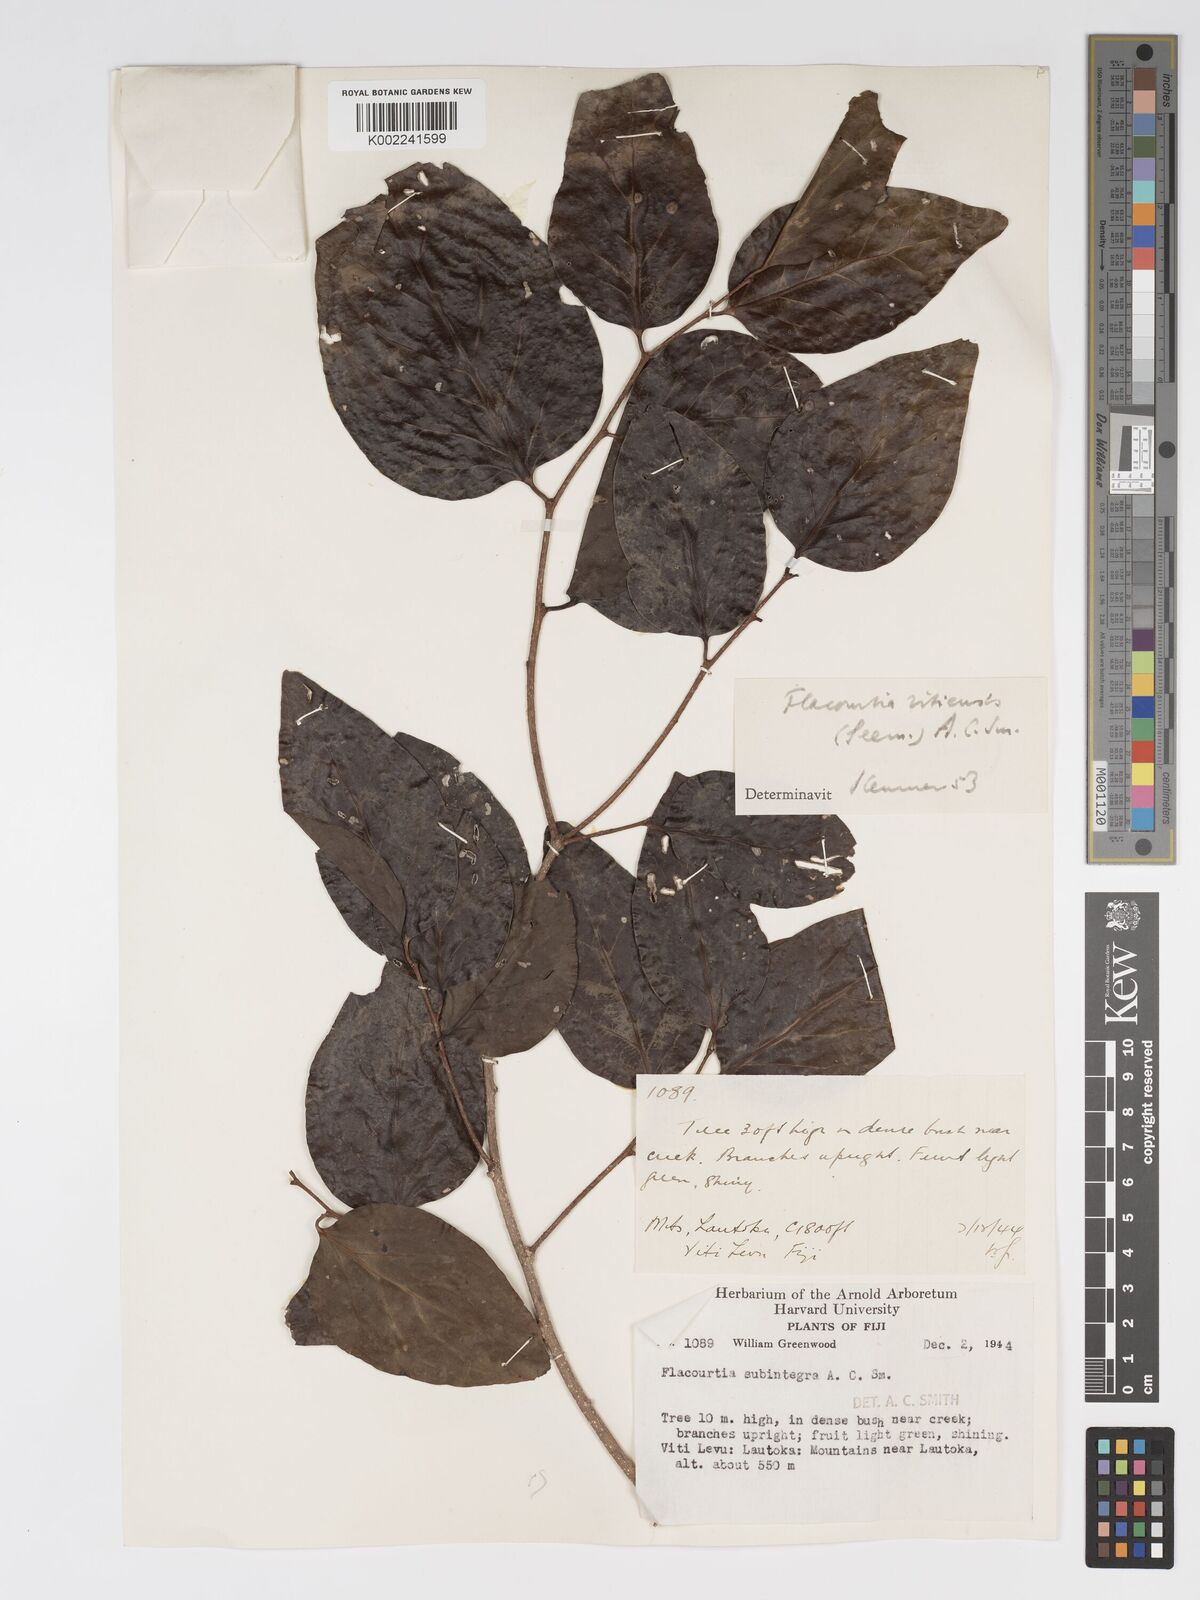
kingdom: Plantae
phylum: Tracheophyta
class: Magnoliopsida
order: Malpighiales
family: Salicaceae
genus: Flacourtia
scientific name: Flacourtia vitiensis
